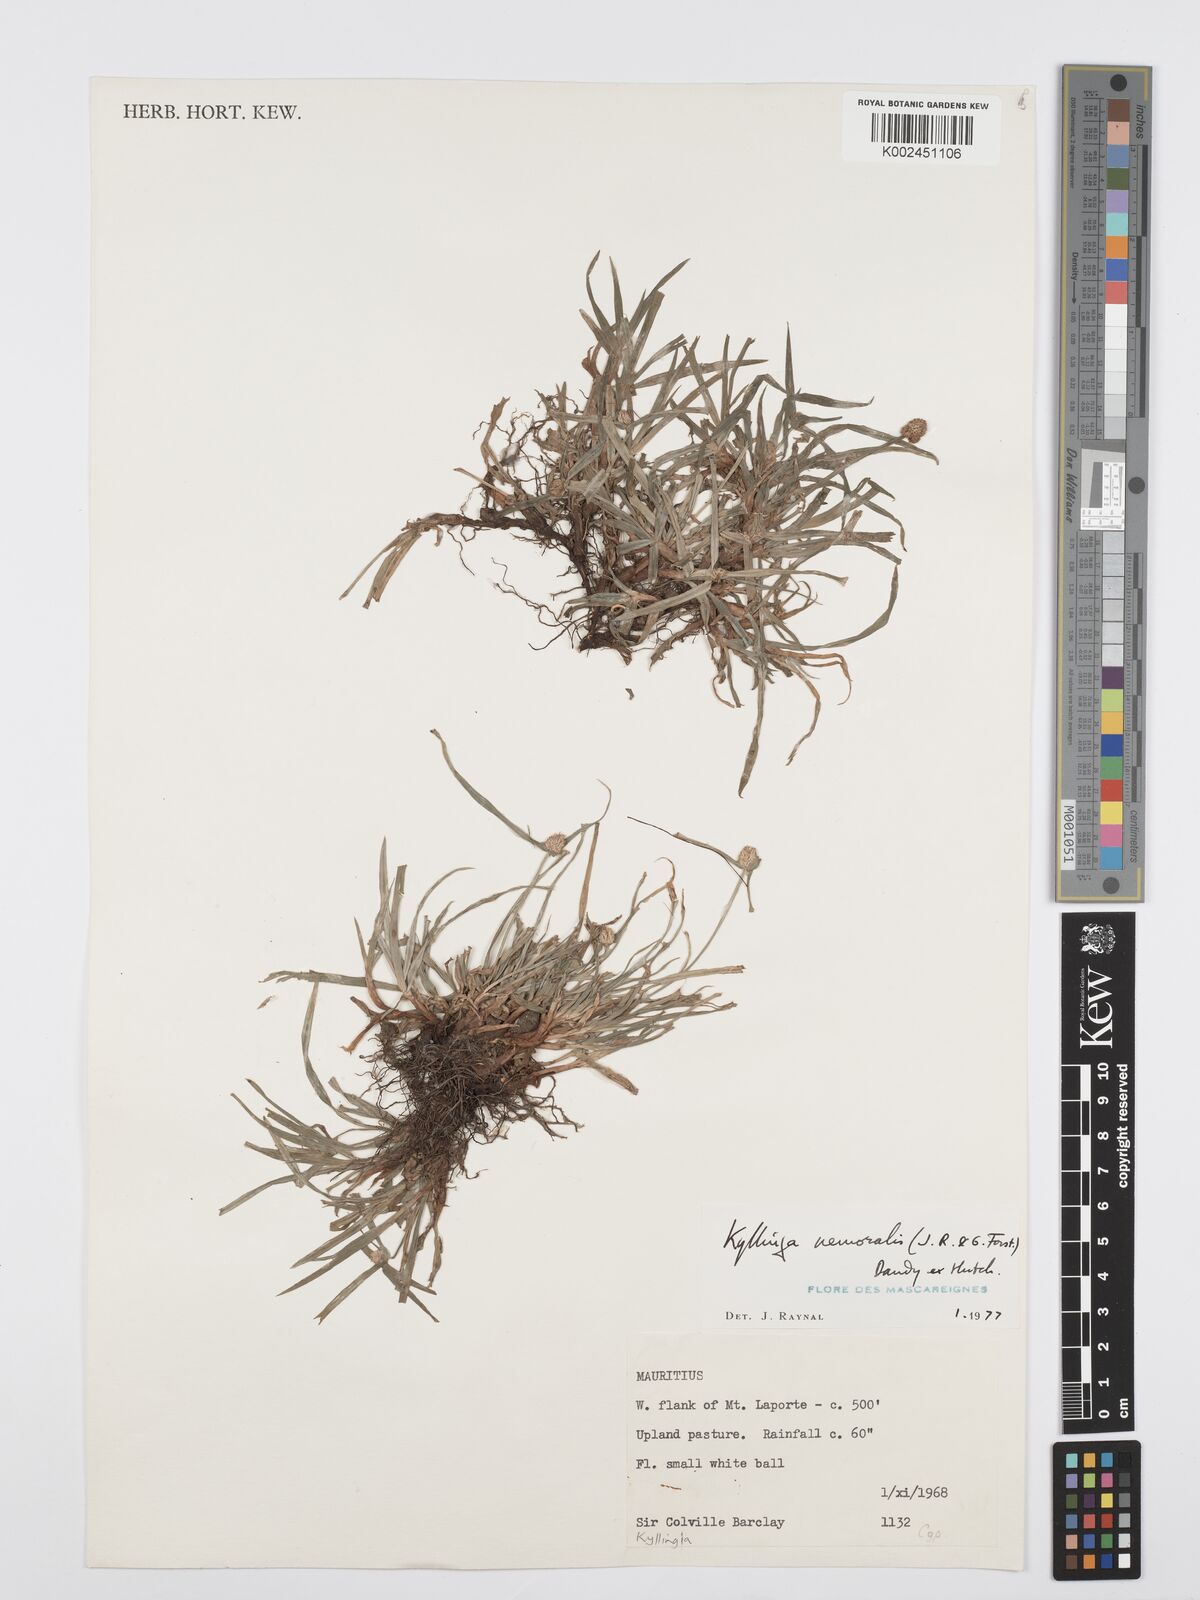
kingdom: Plantae
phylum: Tracheophyta
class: Liliopsida
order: Poales
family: Cyperaceae
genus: Cyperus
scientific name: Cyperus nemoralis
